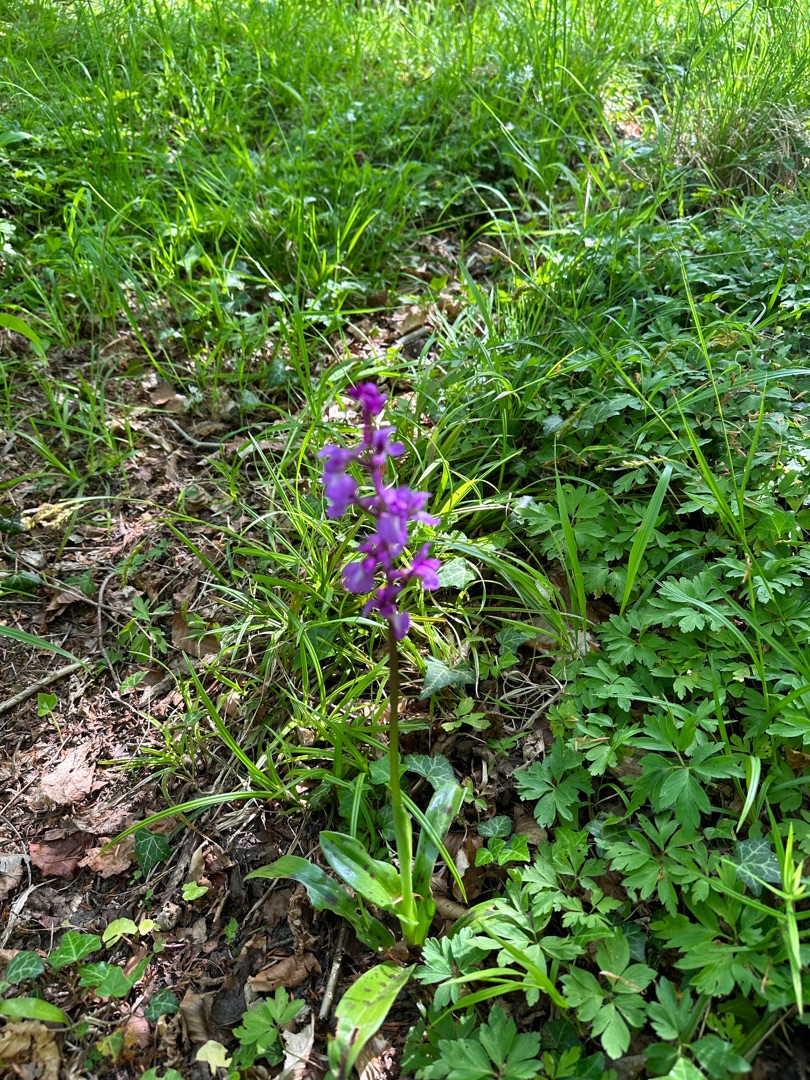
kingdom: Plantae
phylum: Tracheophyta
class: Liliopsida
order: Asparagales
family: Orchidaceae
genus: Orchis
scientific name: Orchis mascula
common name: Tyndakset gøgeurt
